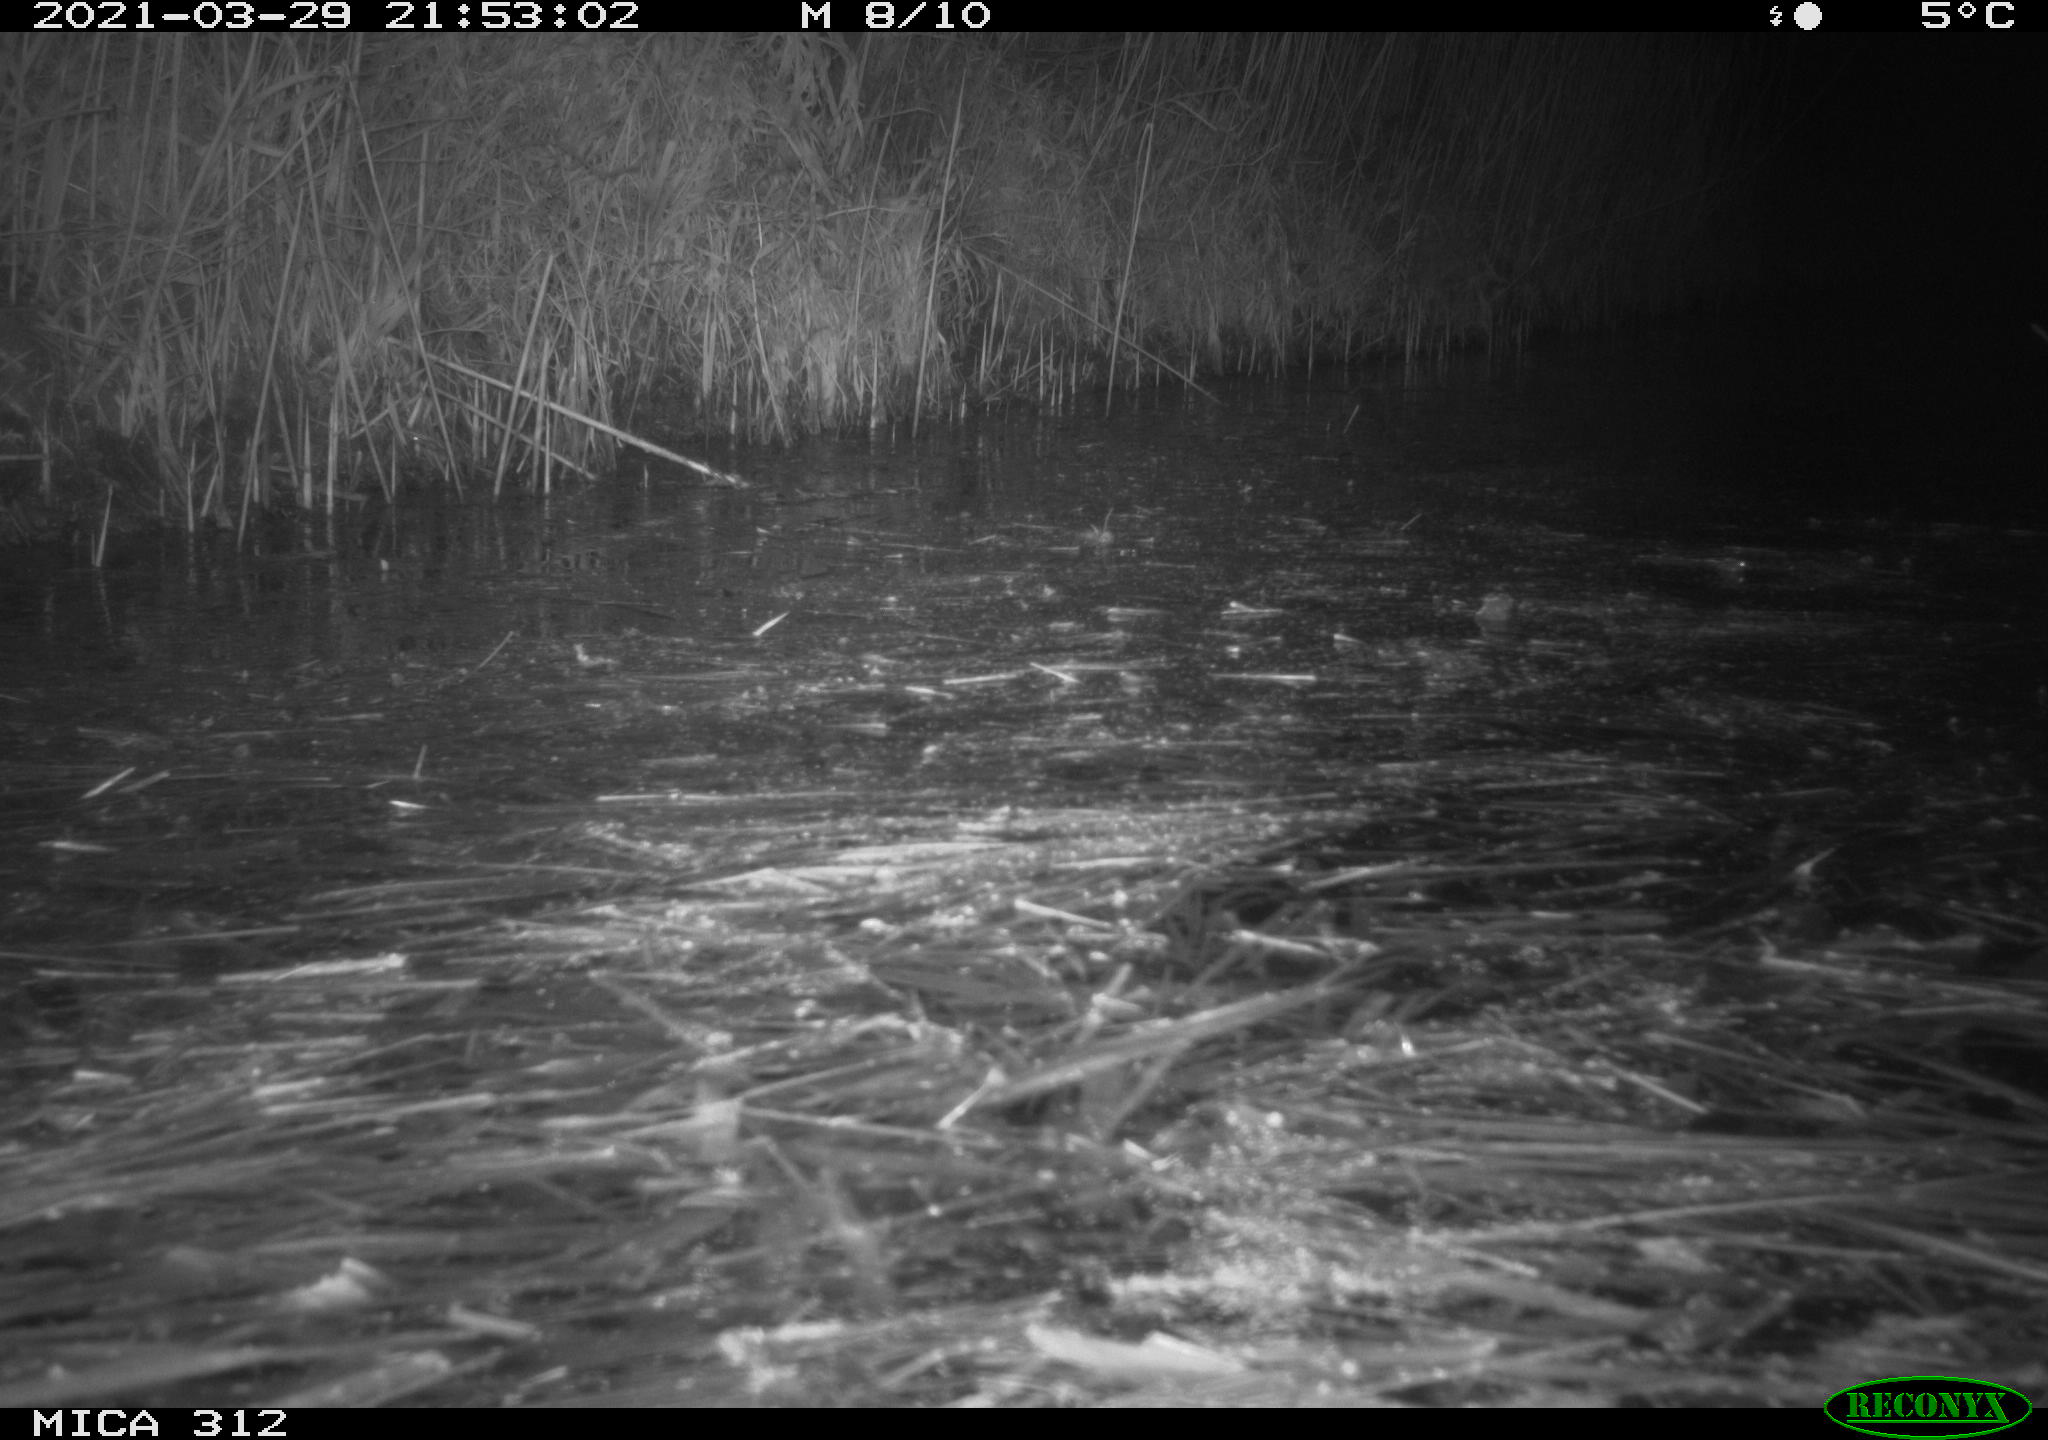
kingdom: Animalia
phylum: Chordata
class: Mammalia
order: Rodentia
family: Cricetidae
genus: Ondatra
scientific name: Ondatra zibethicus
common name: Muskrat
